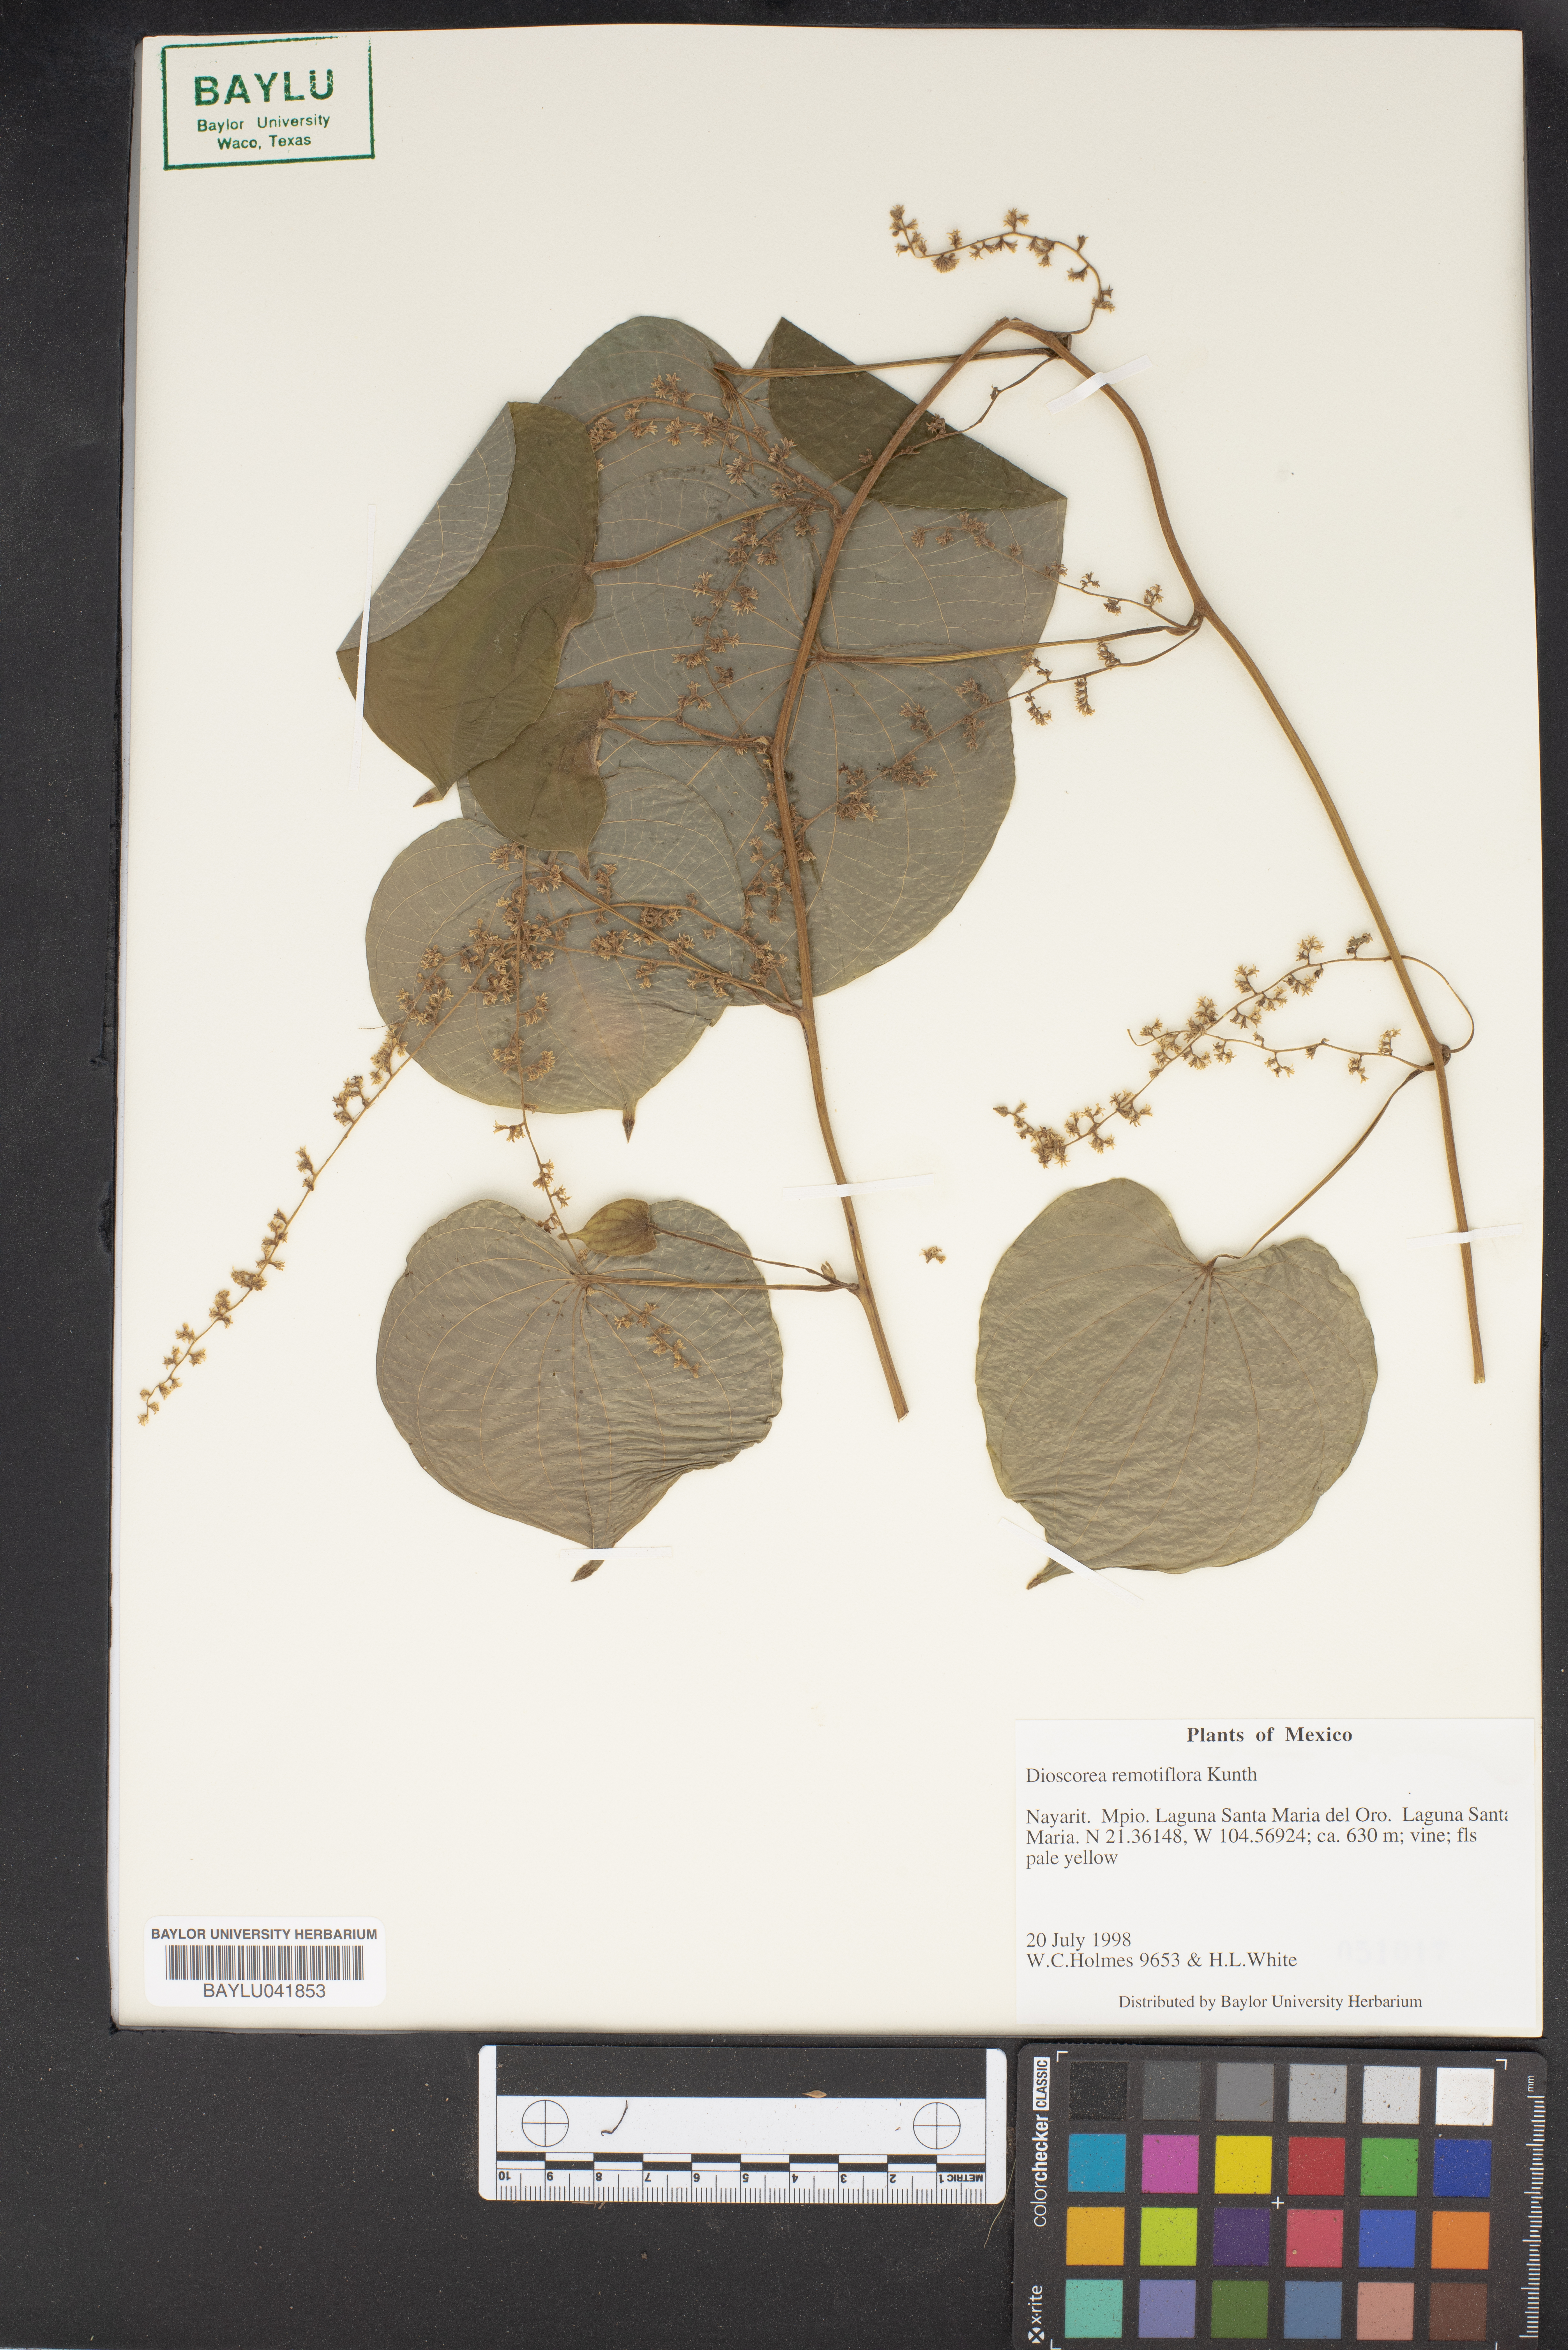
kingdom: Plantae
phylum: Tracheophyta
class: Liliopsida
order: Dioscoreales
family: Dioscoreaceae
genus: Dioscorea
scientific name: Dioscorea remotiflora
